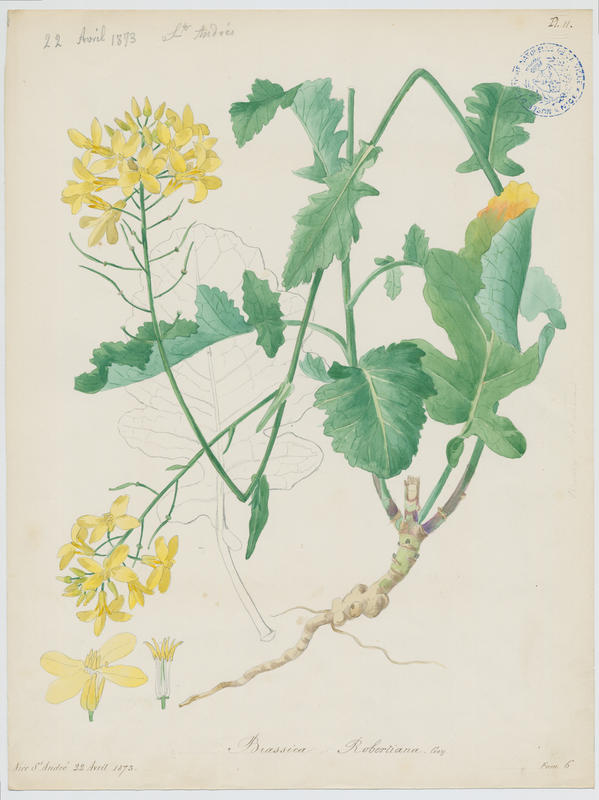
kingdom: Plantae
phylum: Tracheophyta
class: Magnoliopsida
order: Brassicales
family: Brassicaceae
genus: Brassica
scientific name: Brassica montana
